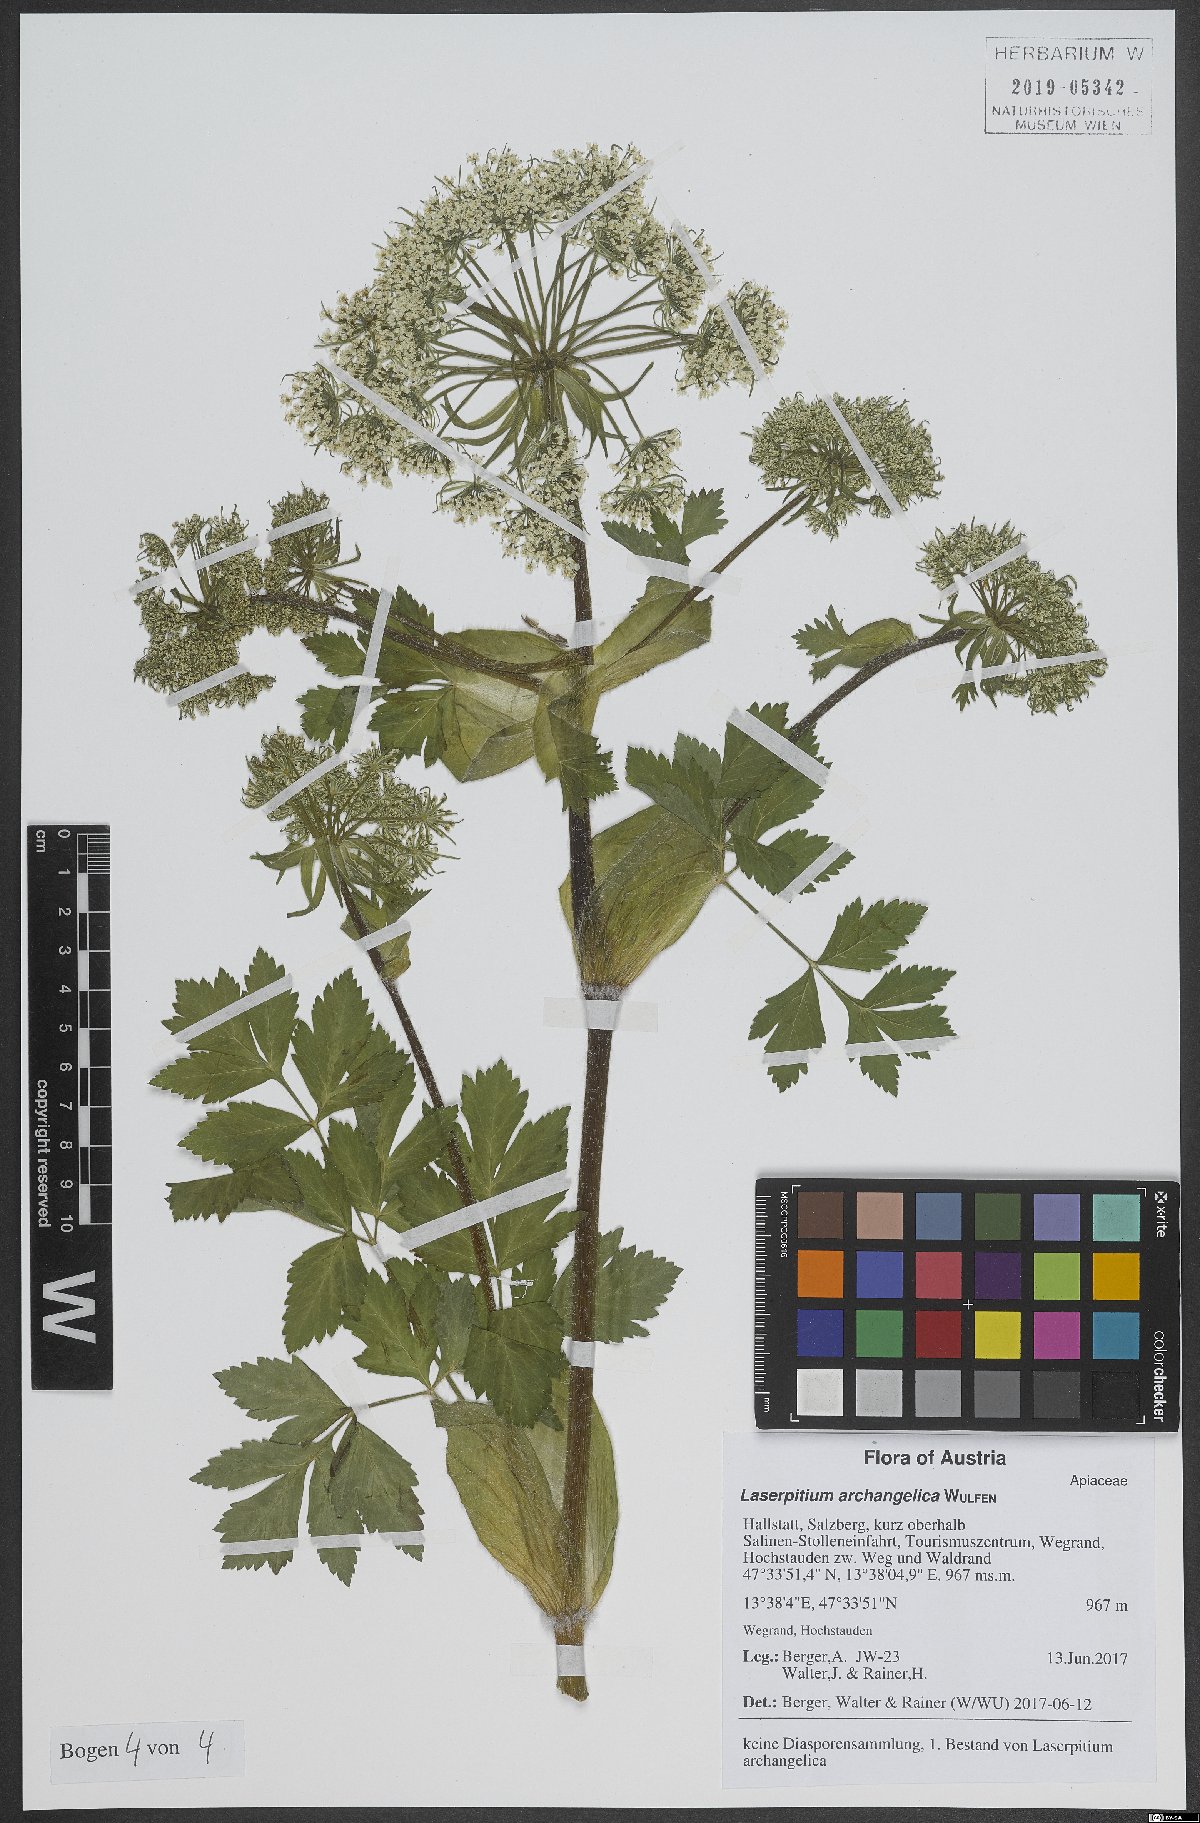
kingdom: Plantae
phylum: Tracheophyta
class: Magnoliopsida
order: Apiales
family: Apiaceae
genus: Laser
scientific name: Laser archangelica
